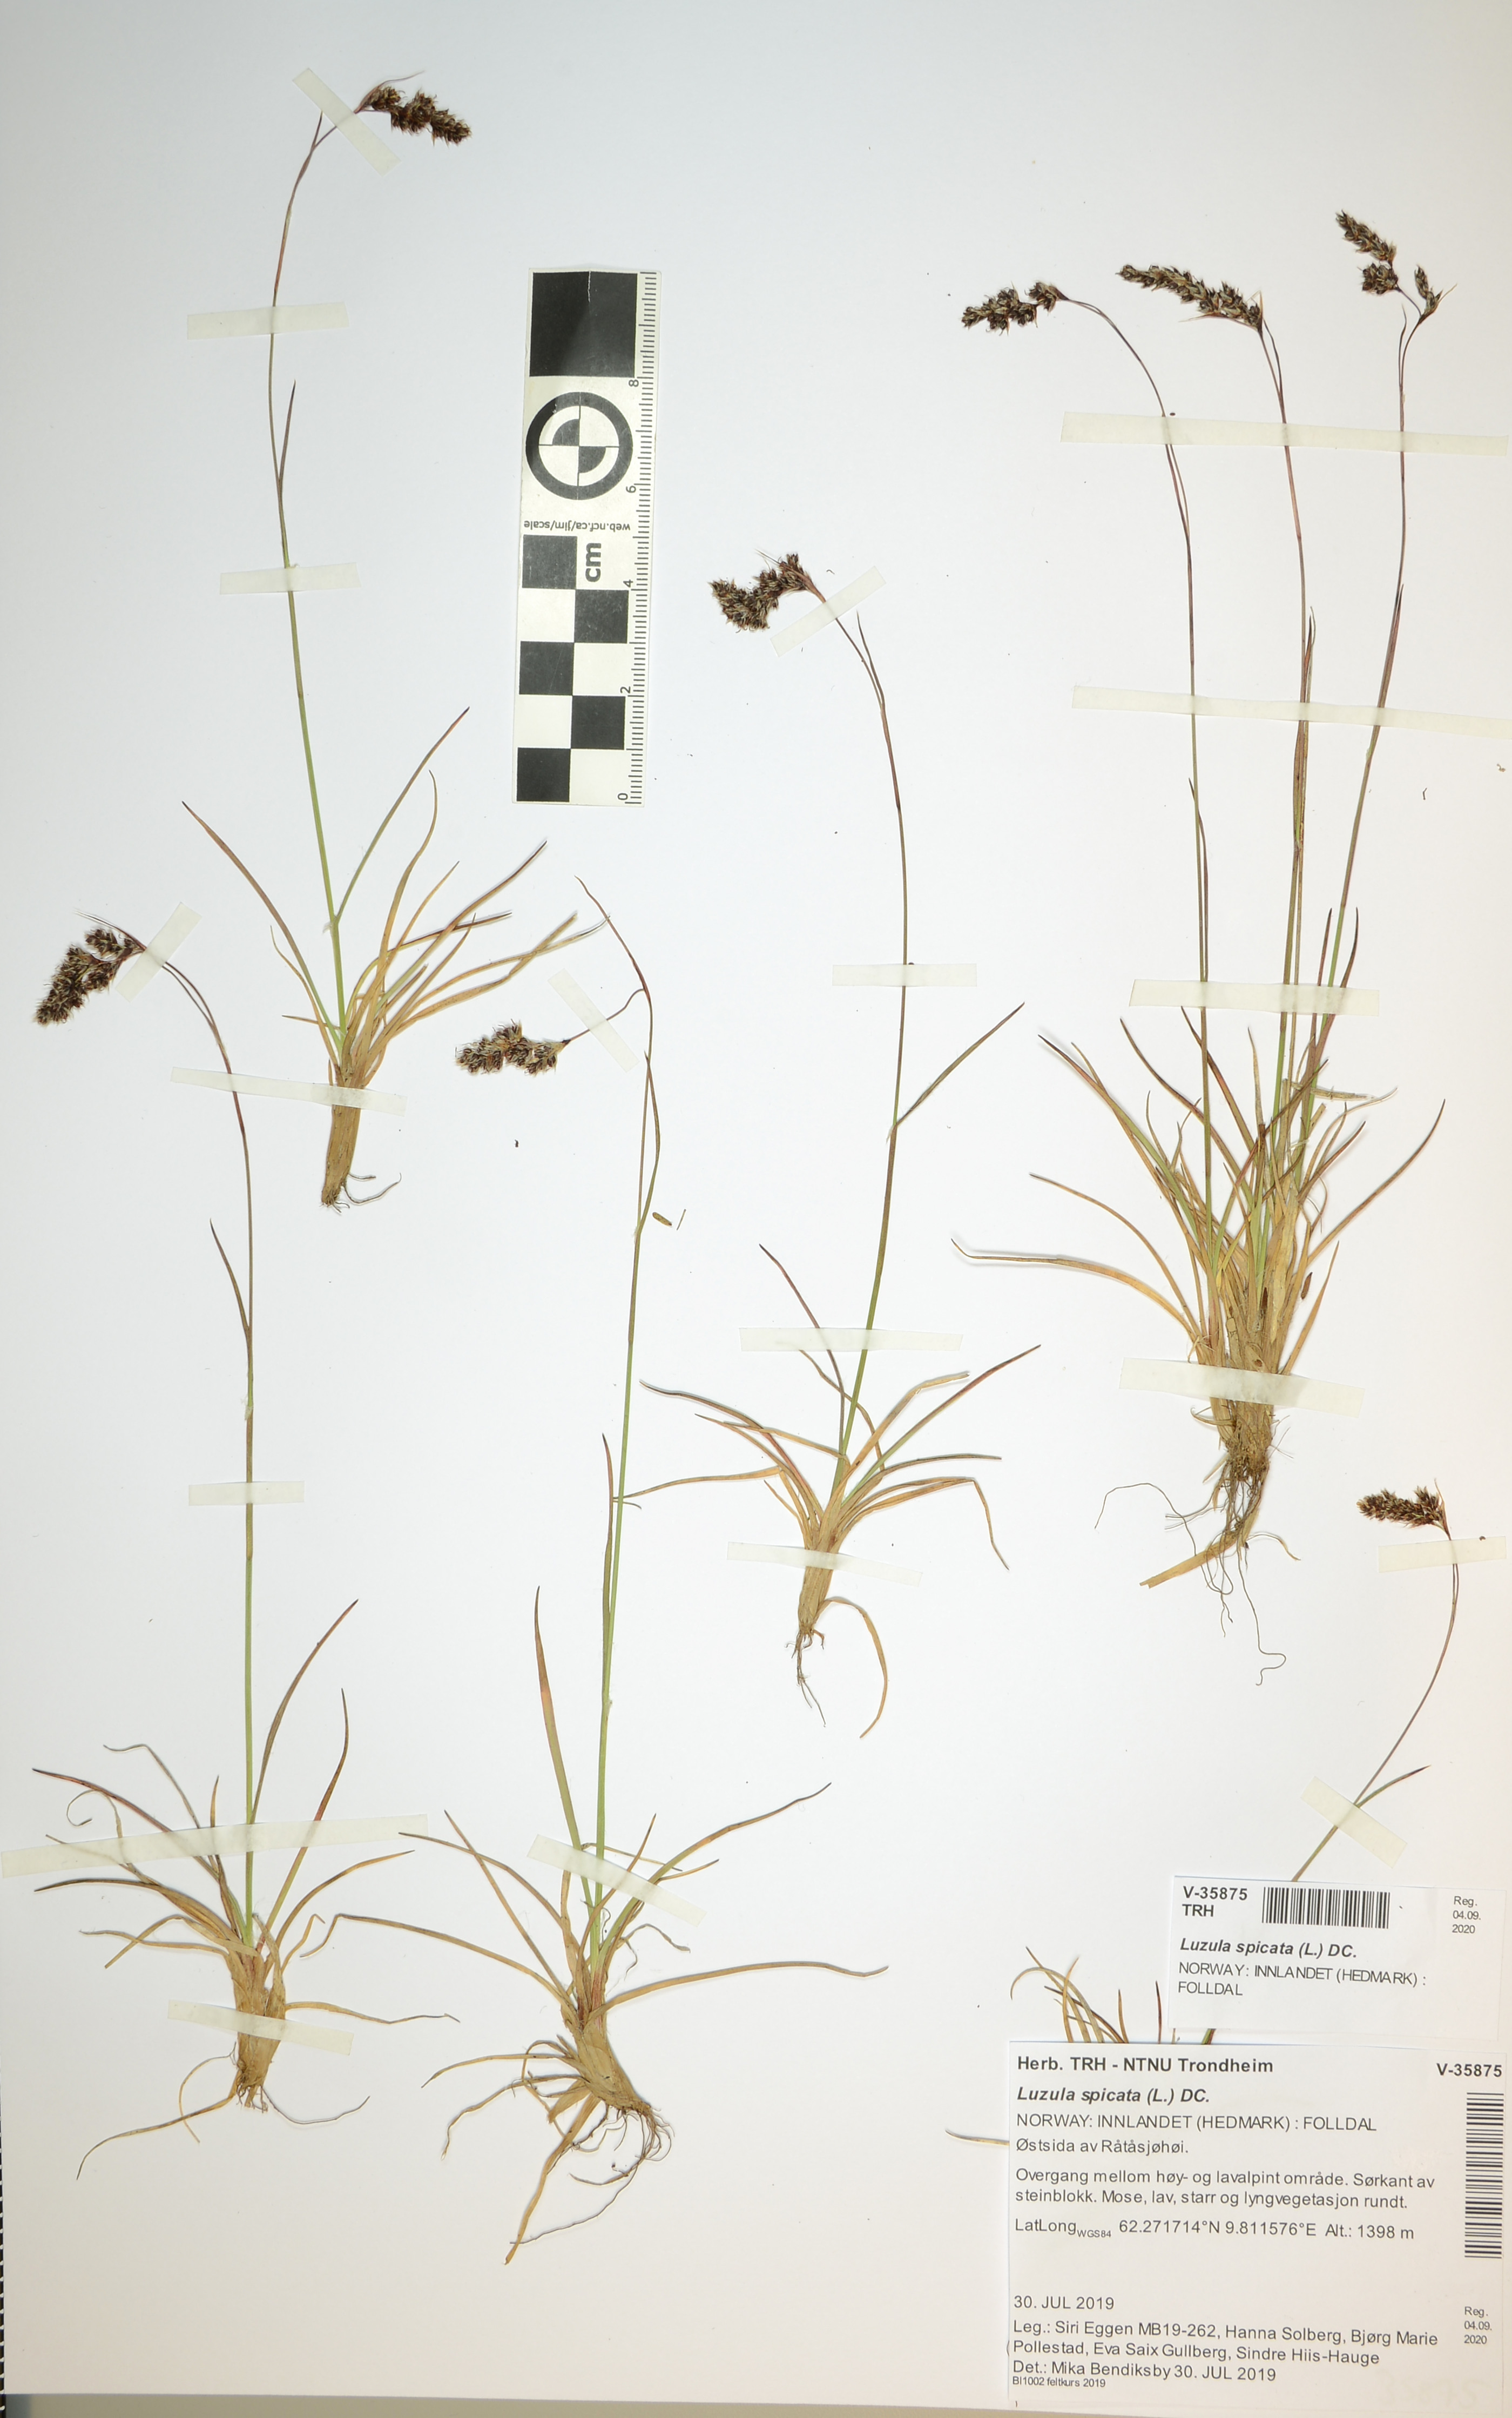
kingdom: Plantae
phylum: Tracheophyta
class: Liliopsida
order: Poales
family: Juncaceae
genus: Luzula
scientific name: Luzula spicata
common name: Spiked wood-rush
